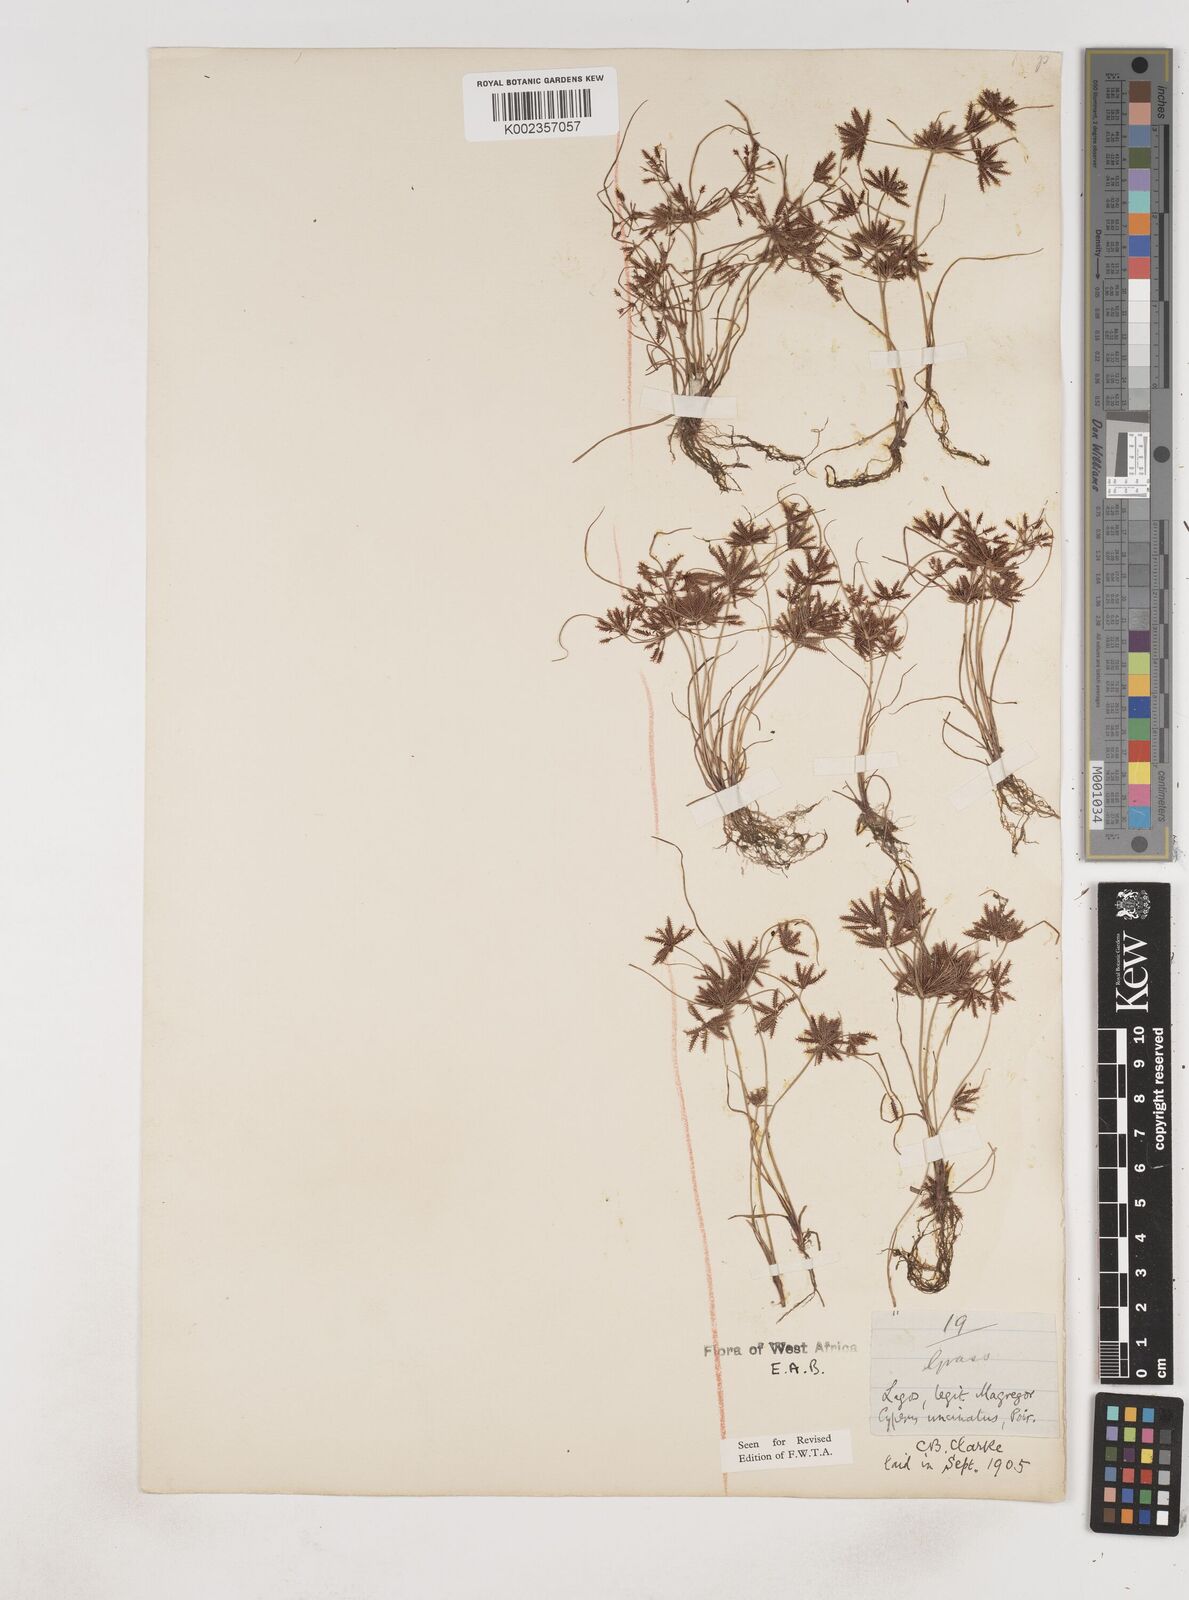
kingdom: Plantae
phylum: Tracheophyta
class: Liliopsida
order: Poales
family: Cyperaceae
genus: Cyperus
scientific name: Cyperus
